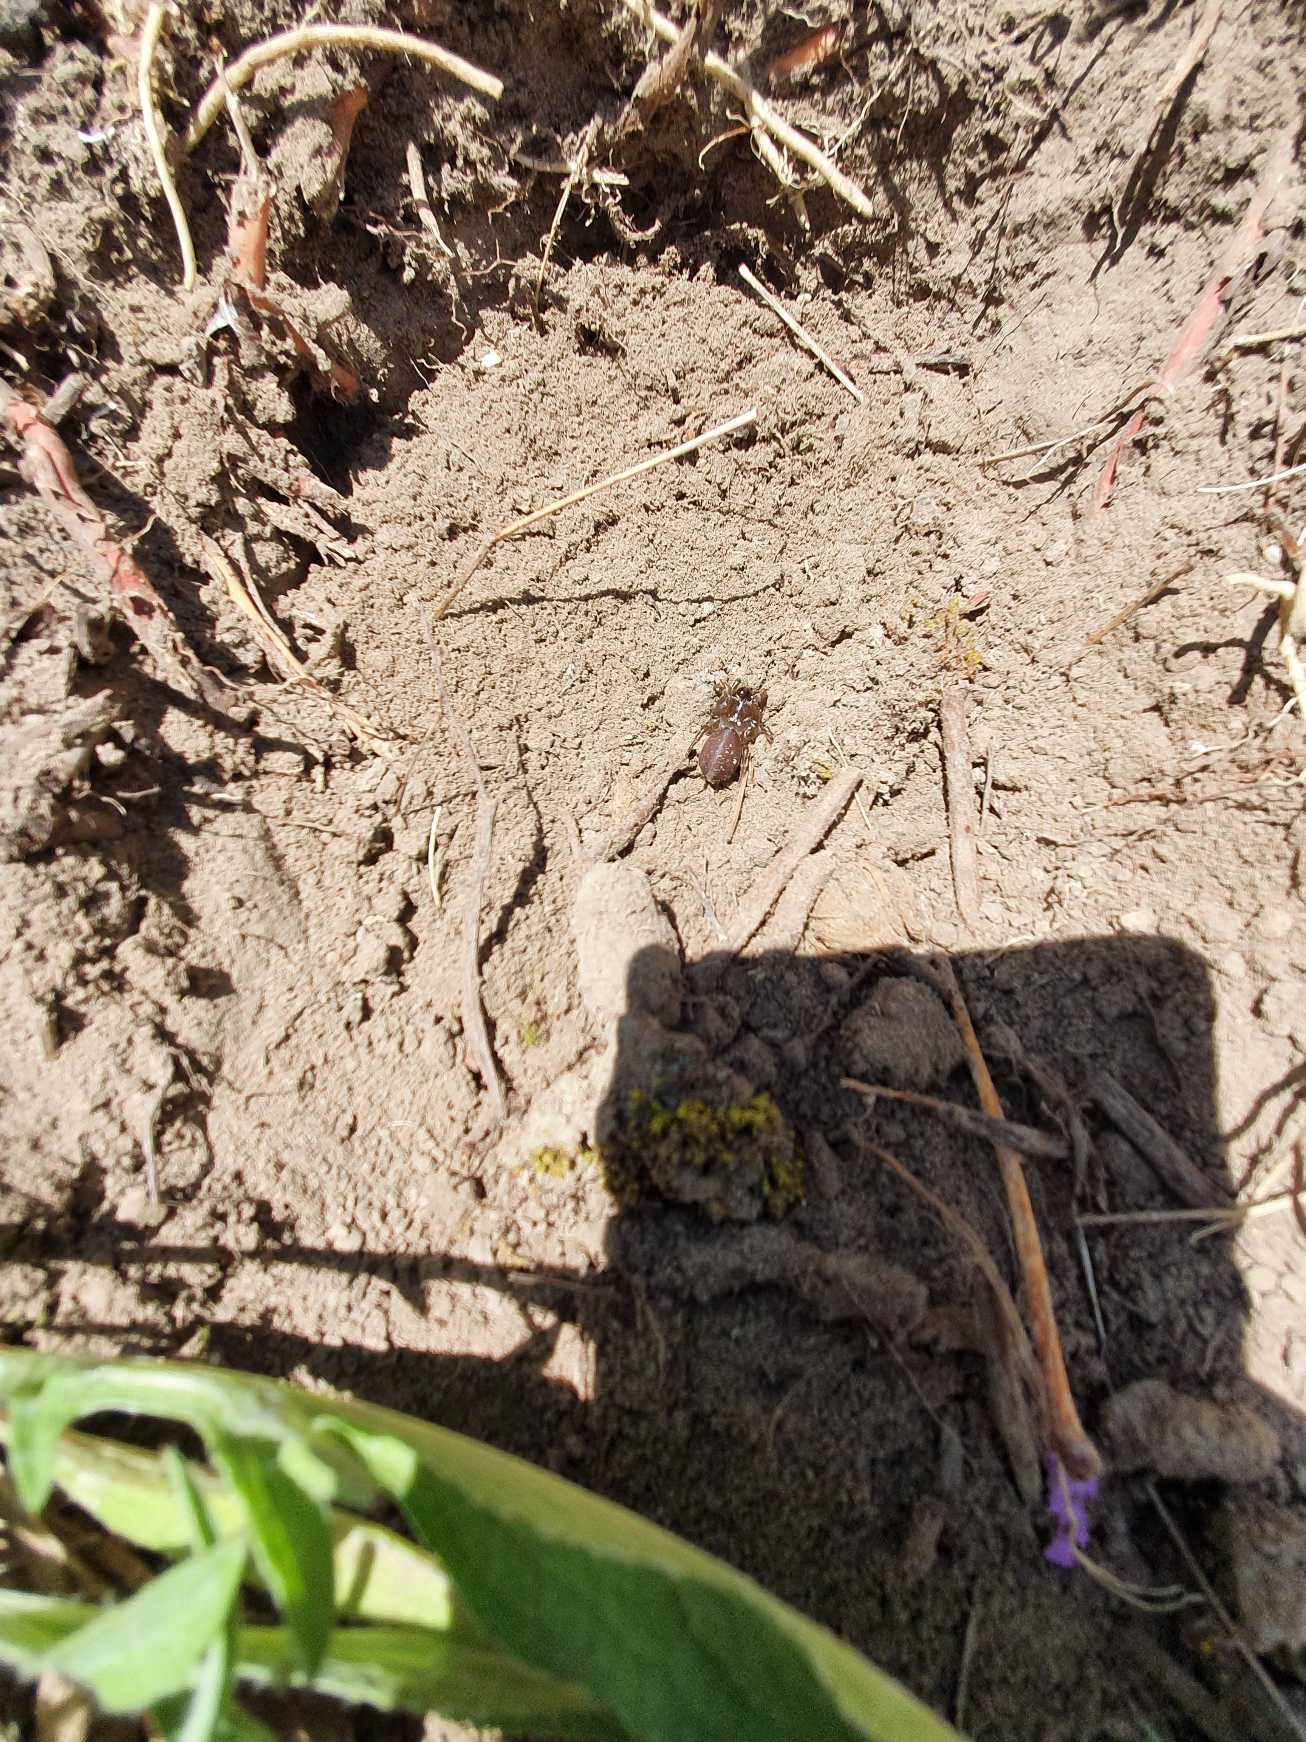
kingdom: Animalia
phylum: Arthropoda
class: Arachnida
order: Araneae
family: Atypidae
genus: Atypus
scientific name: Atypus affinis
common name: Nordlig fugleedderkop
